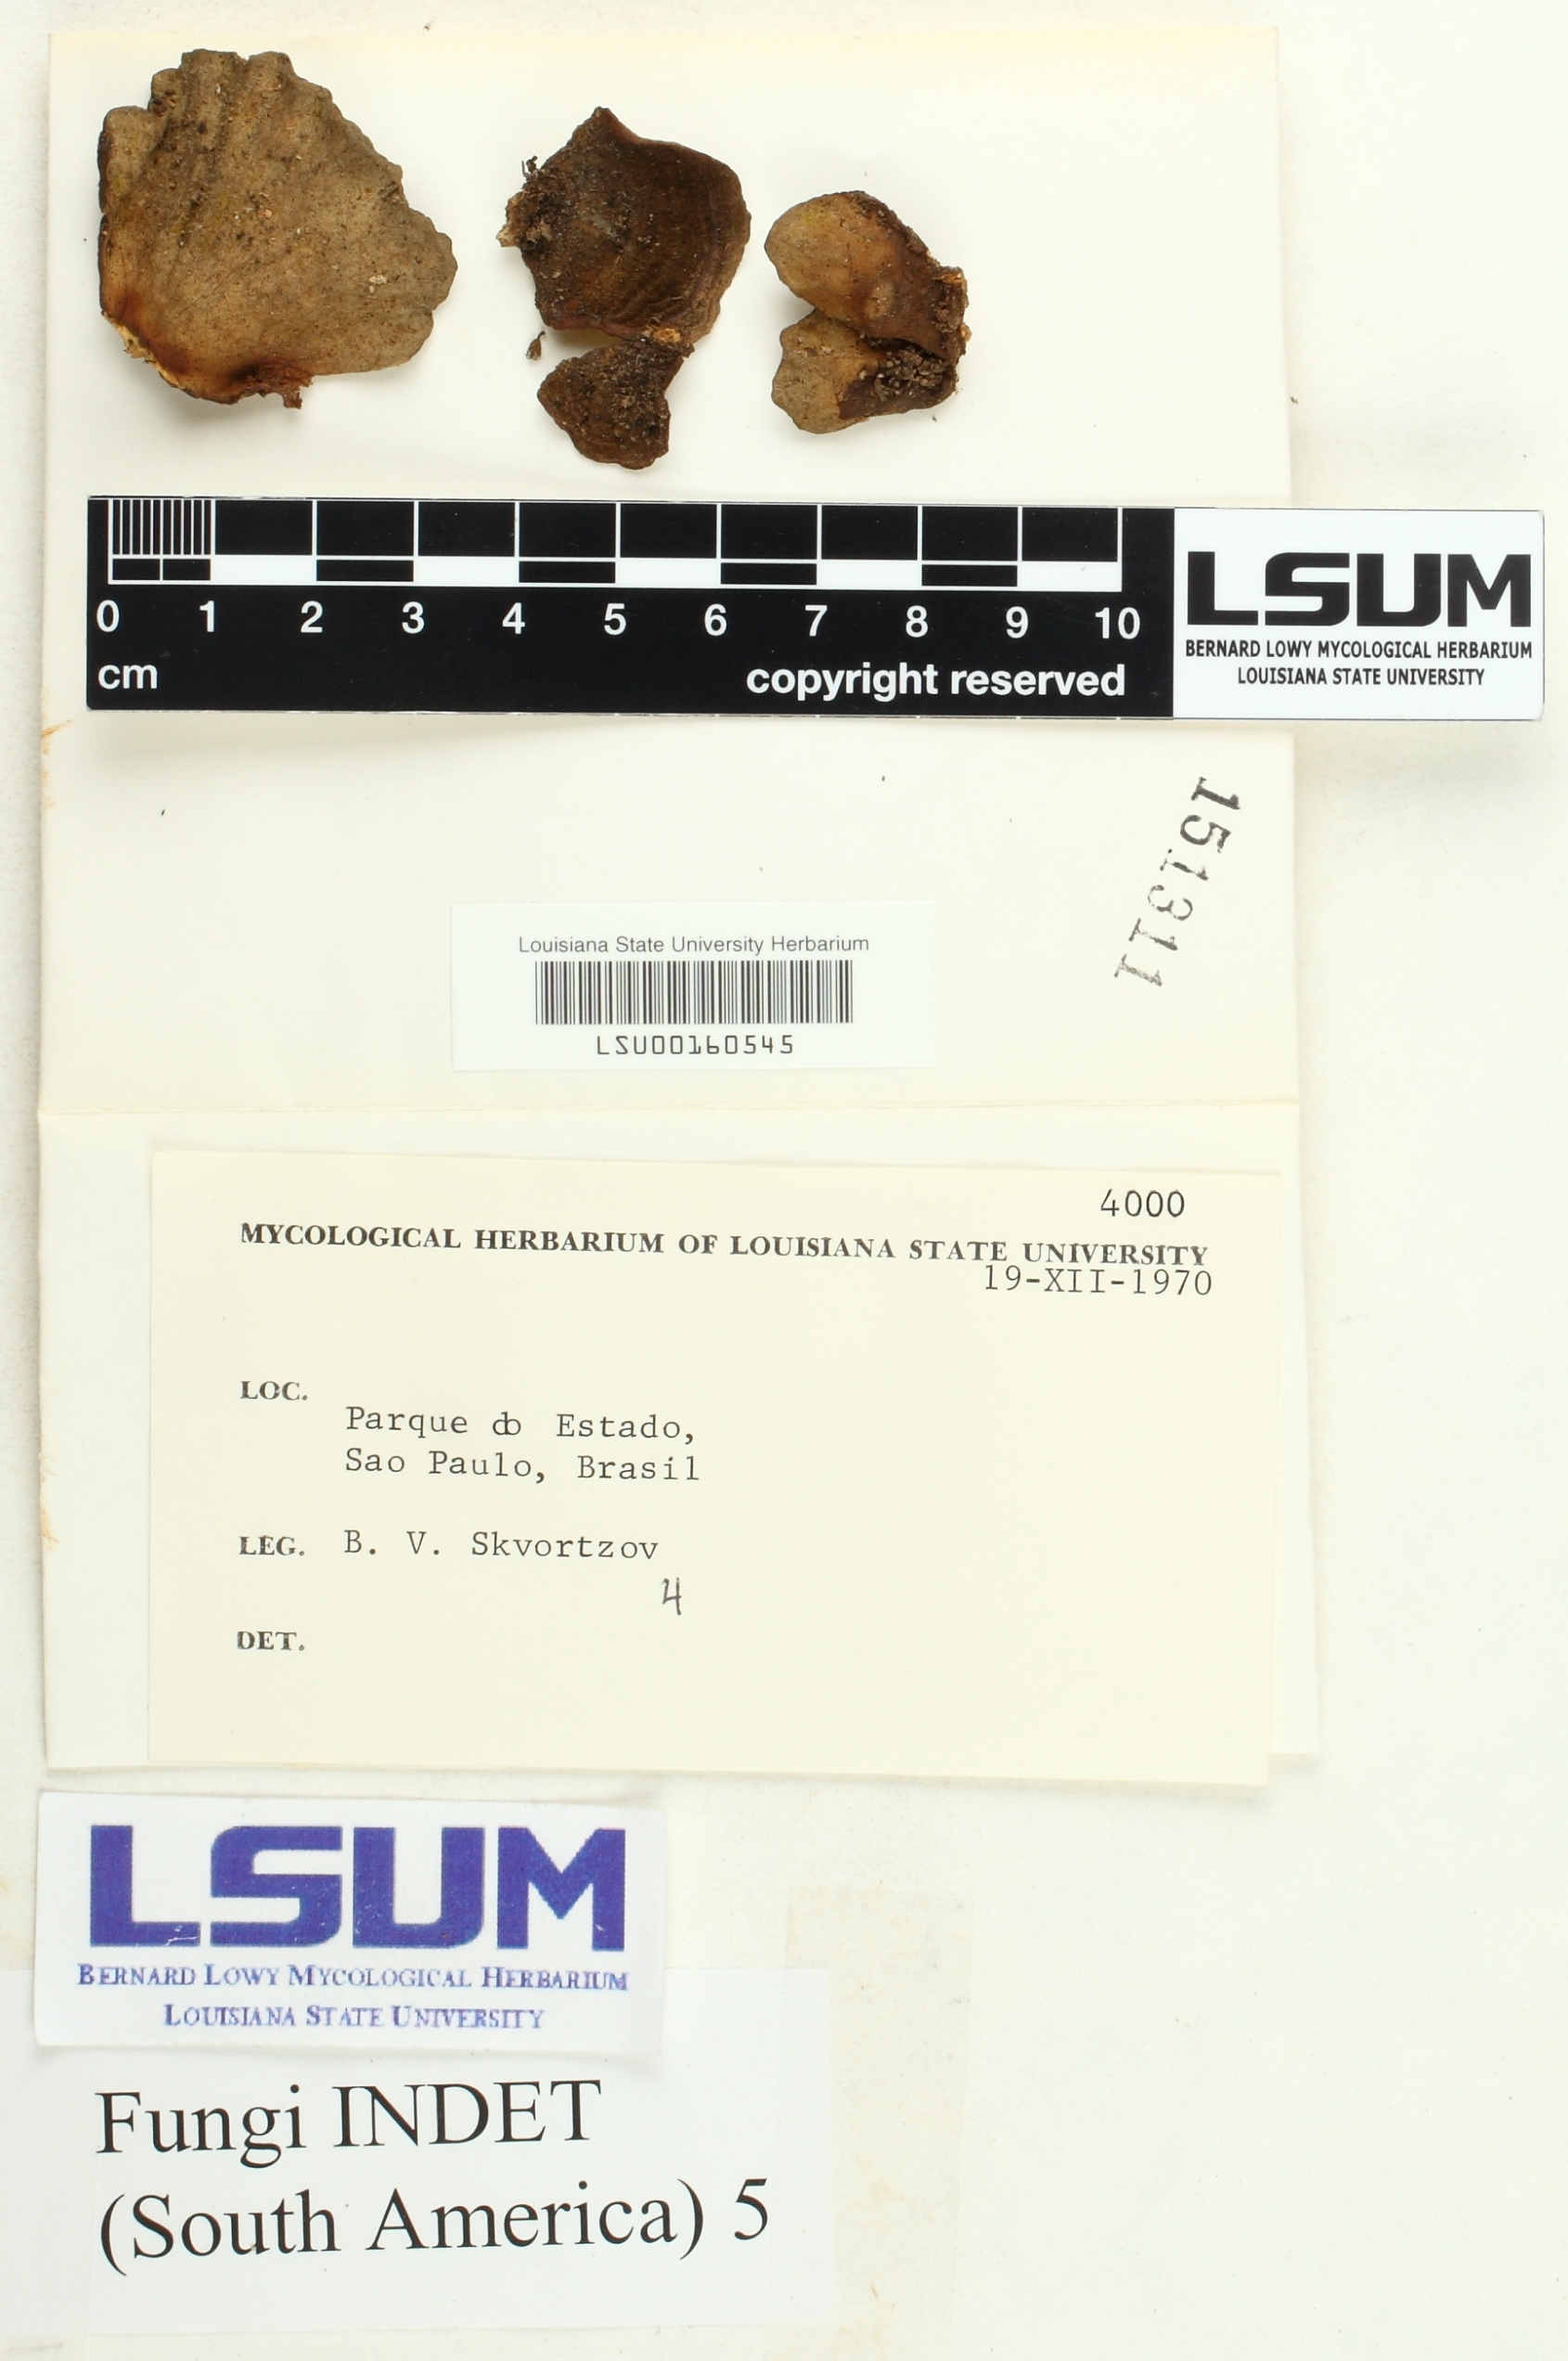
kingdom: Fungi
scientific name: Fungi
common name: Fungi
